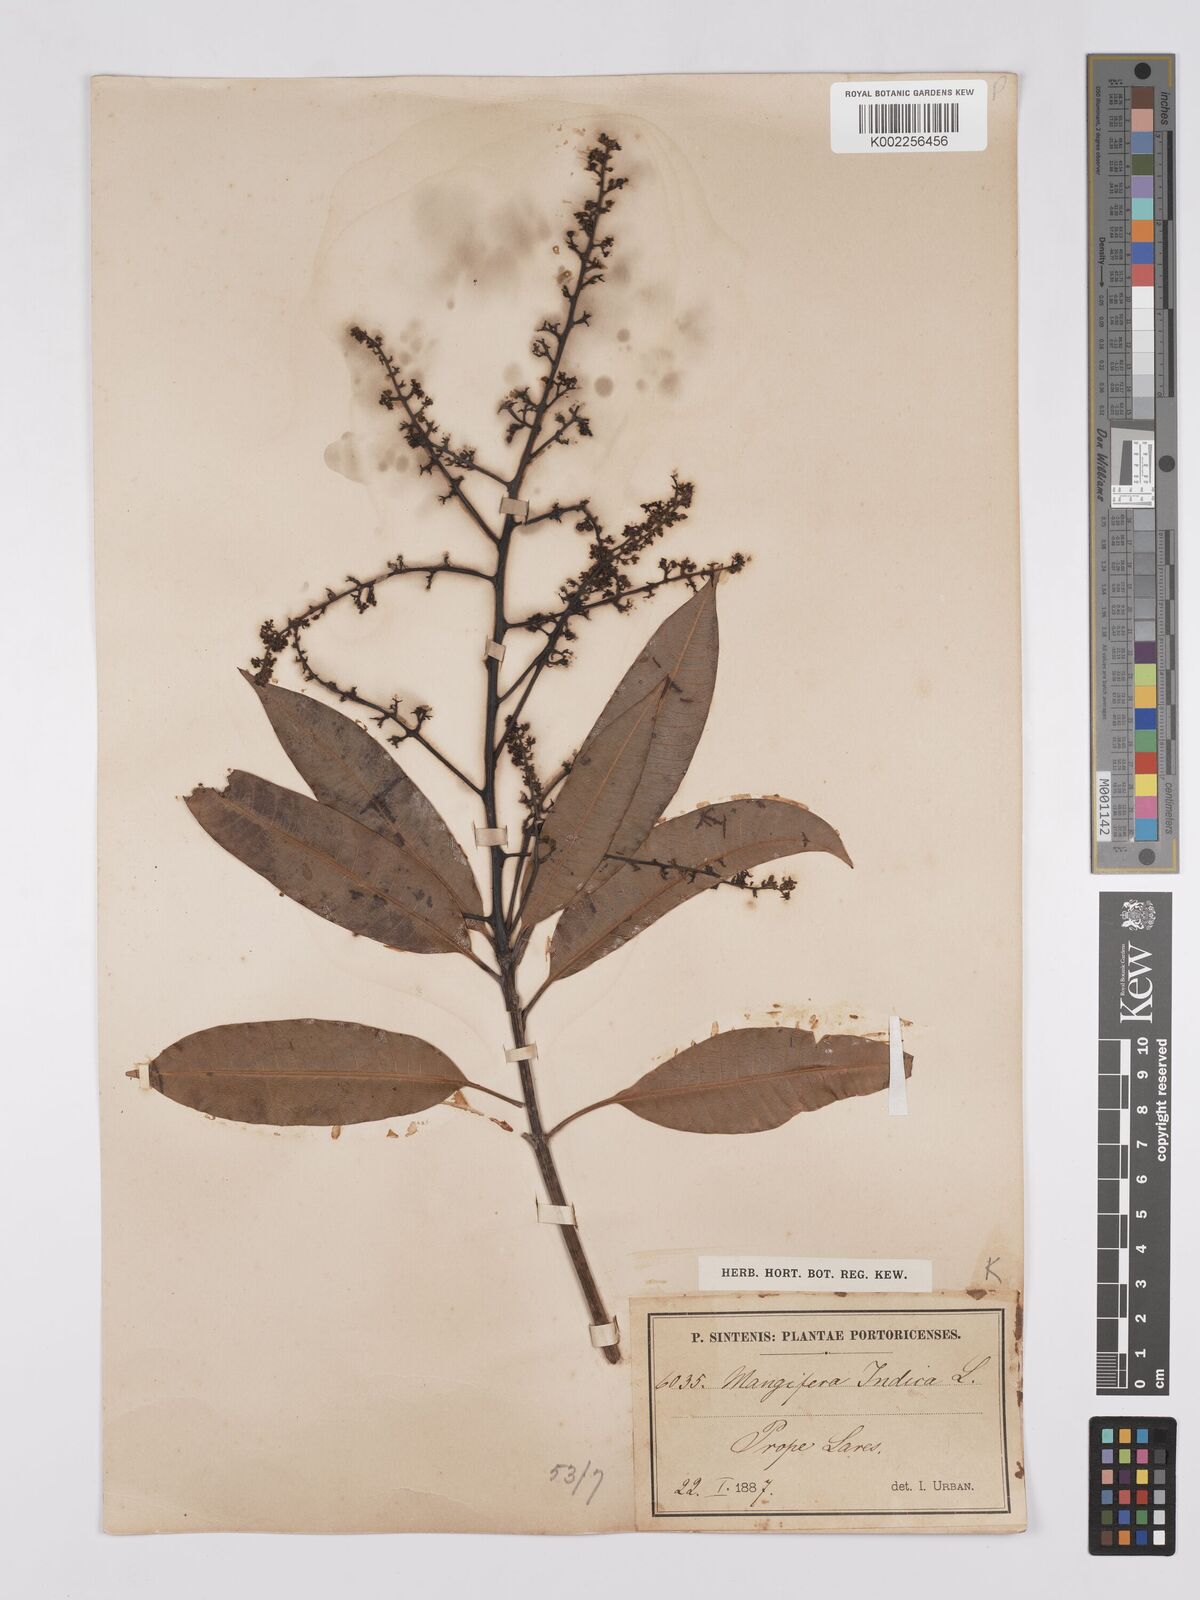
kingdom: Plantae
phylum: Tracheophyta
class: Magnoliopsida
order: Sapindales
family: Anacardiaceae
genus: Mangifera
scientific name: Mangifera indica
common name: Mango
